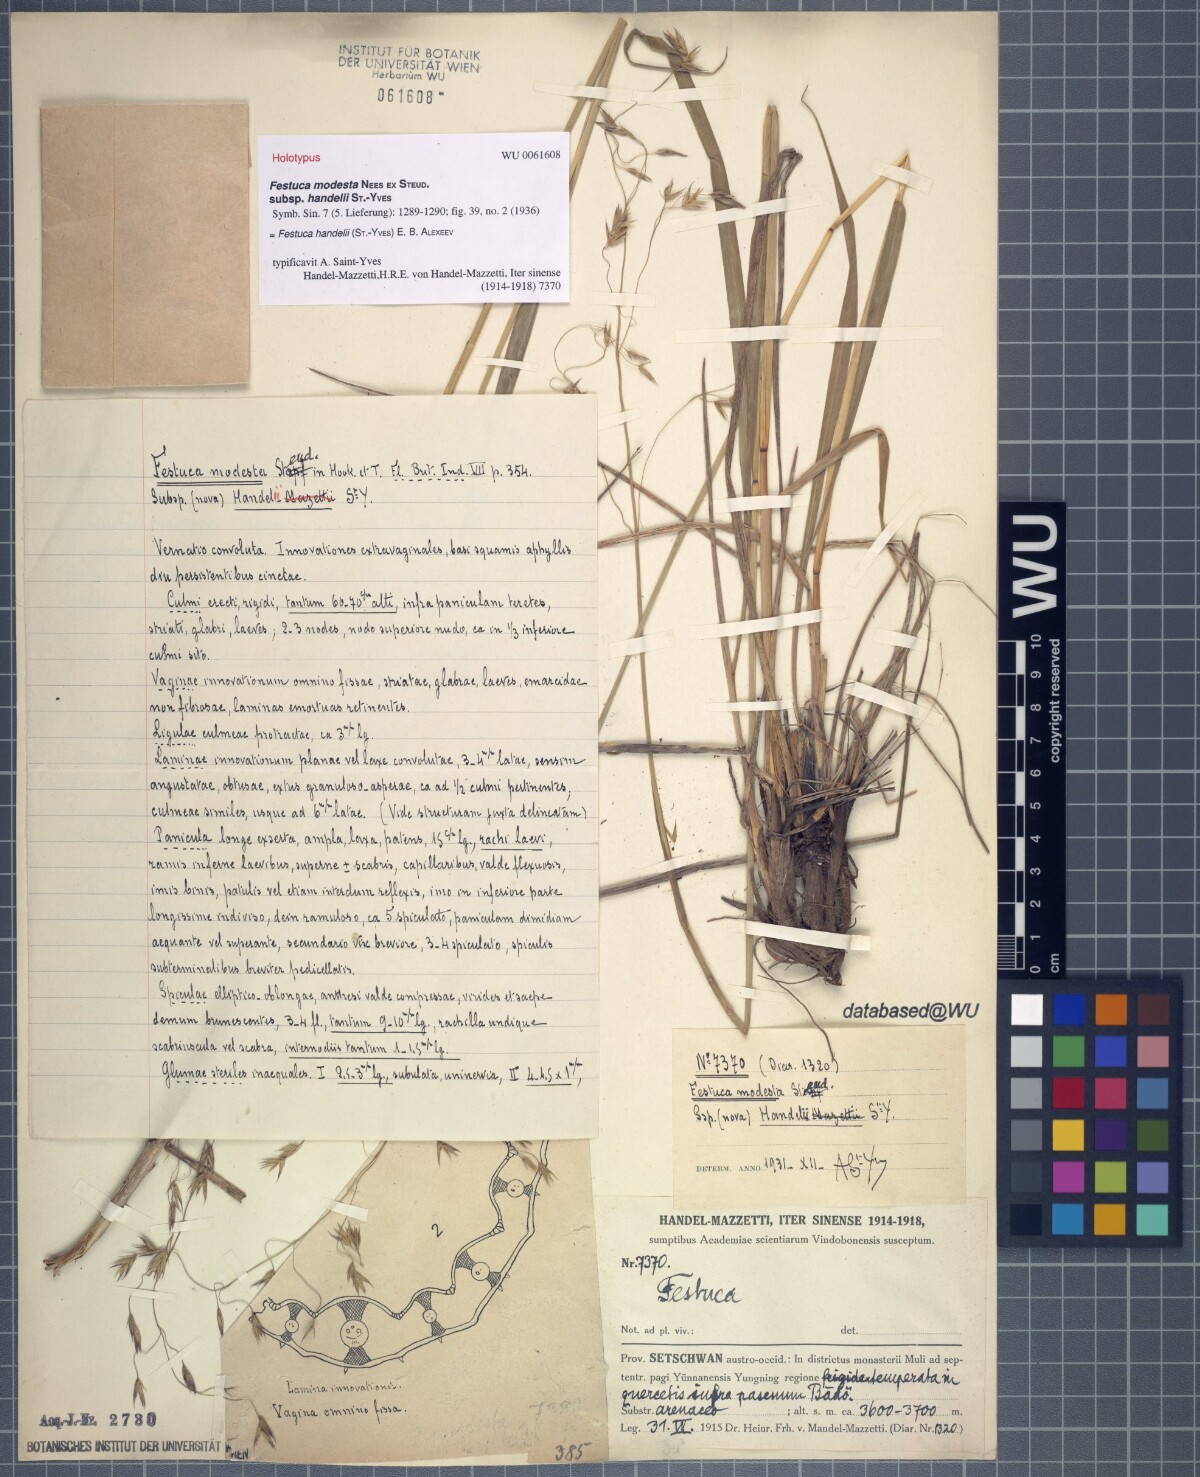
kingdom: Plantae
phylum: Tracheophyta
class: Liliopsida
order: Poales
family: Poaceae
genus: Festuca
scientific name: Festuca modesta
